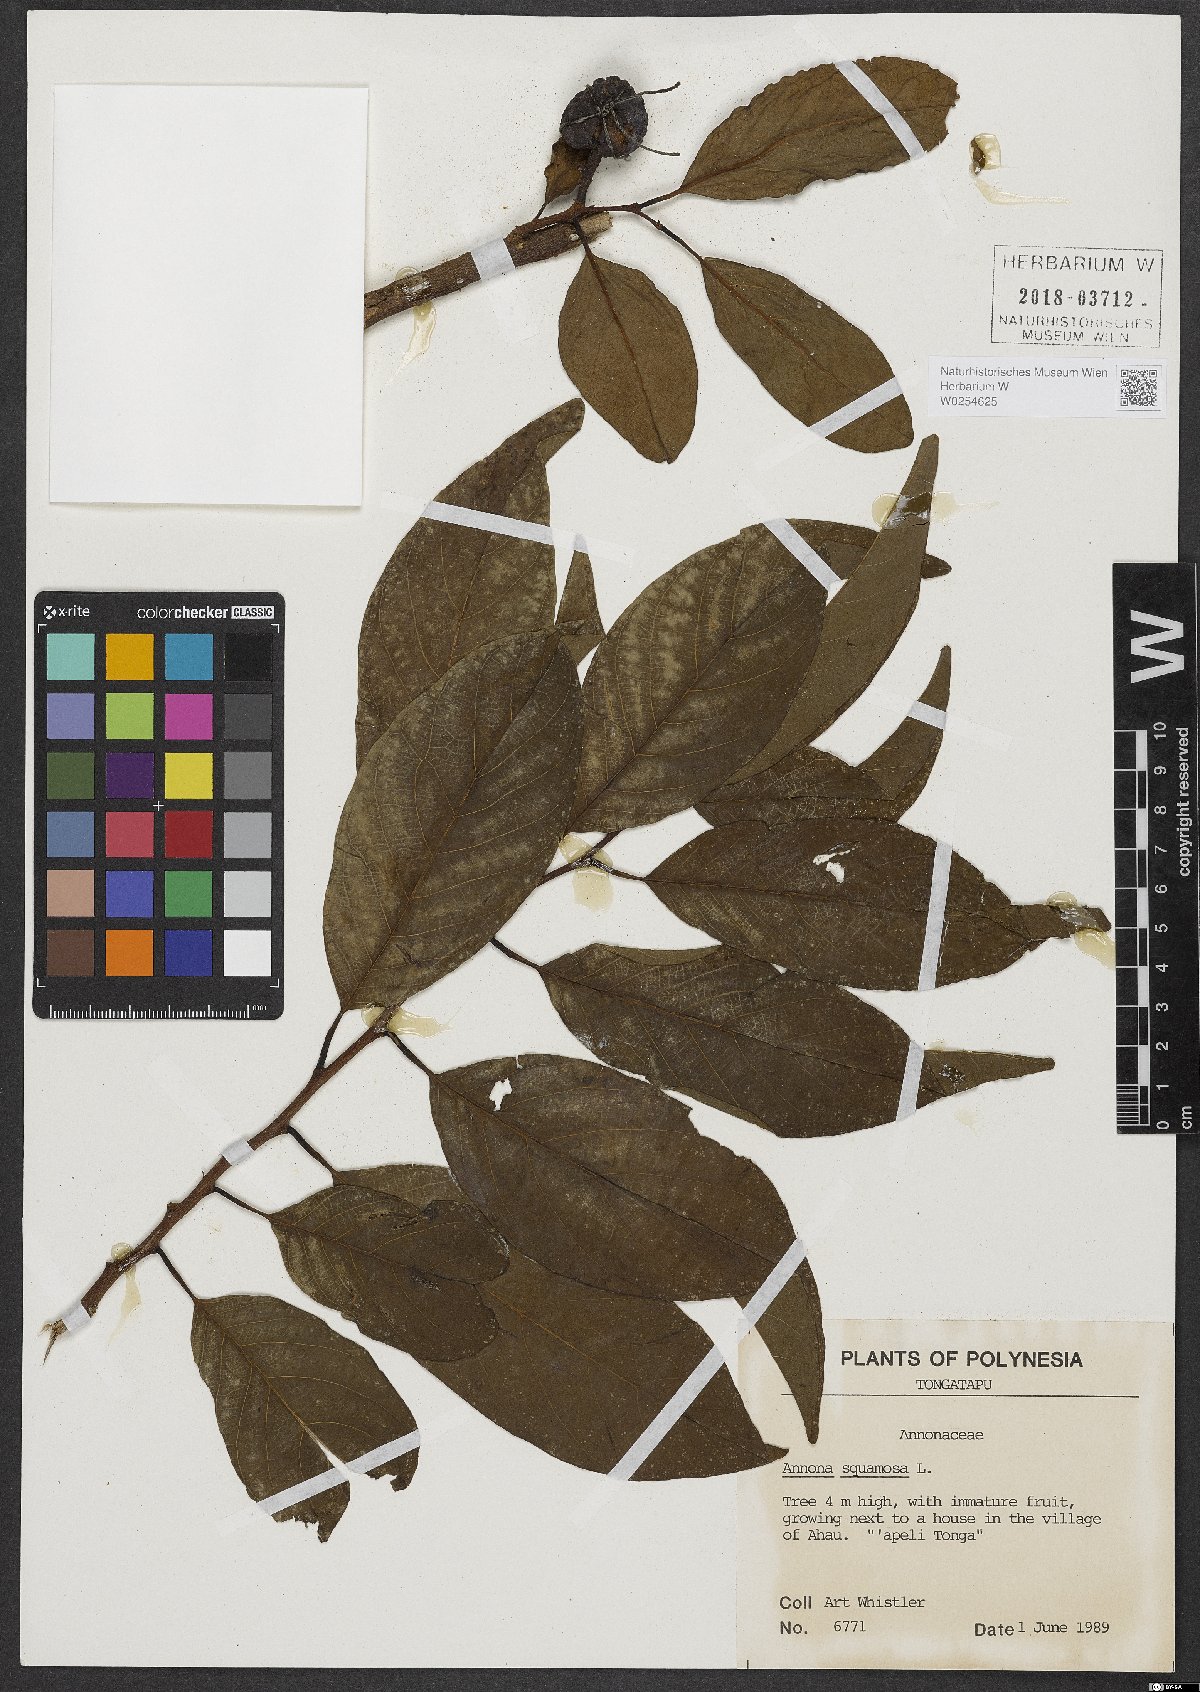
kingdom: Plantae
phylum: Tracheophyta
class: Magnoliopsida
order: Magnoliales
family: Annonaceae
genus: Annona
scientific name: Annona squamosa
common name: Custard-apple
